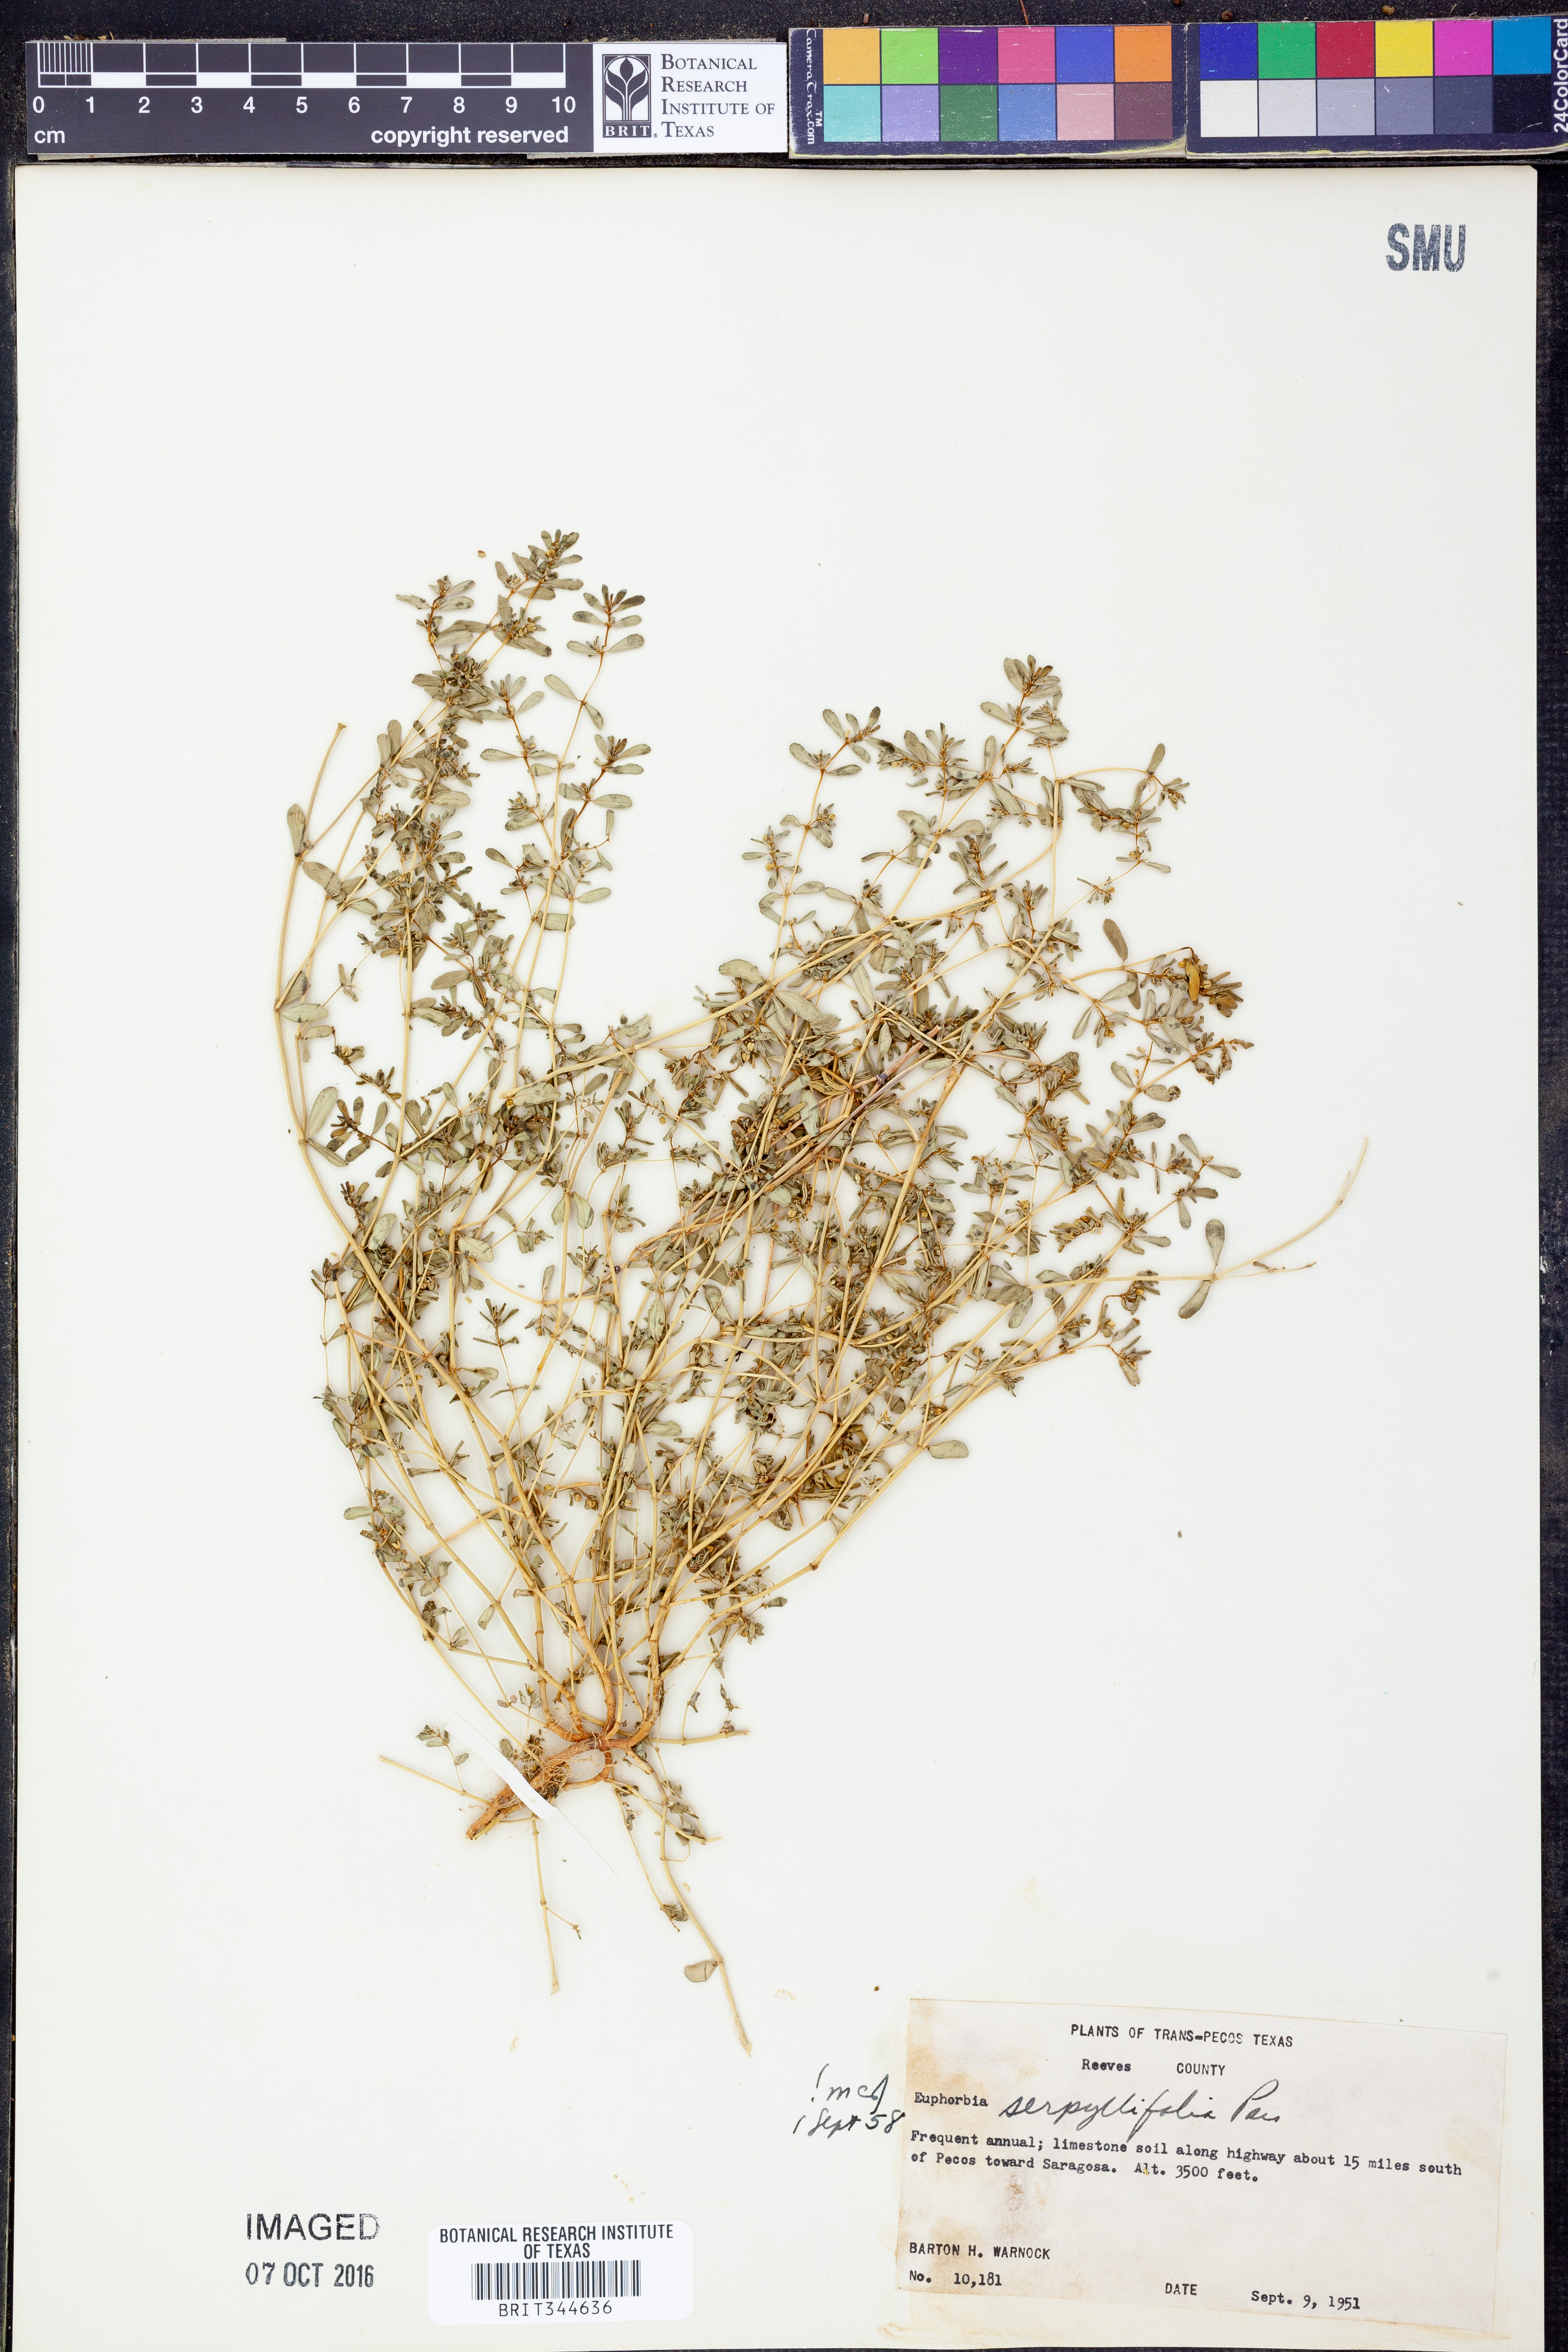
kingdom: Plantae
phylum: Tracheophyta
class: Magnoliopsida
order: Malpighiales
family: Euphorbiaceae
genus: Euphorbia
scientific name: Euphorbia serpillifolia
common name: Thyme-leaf spurge
